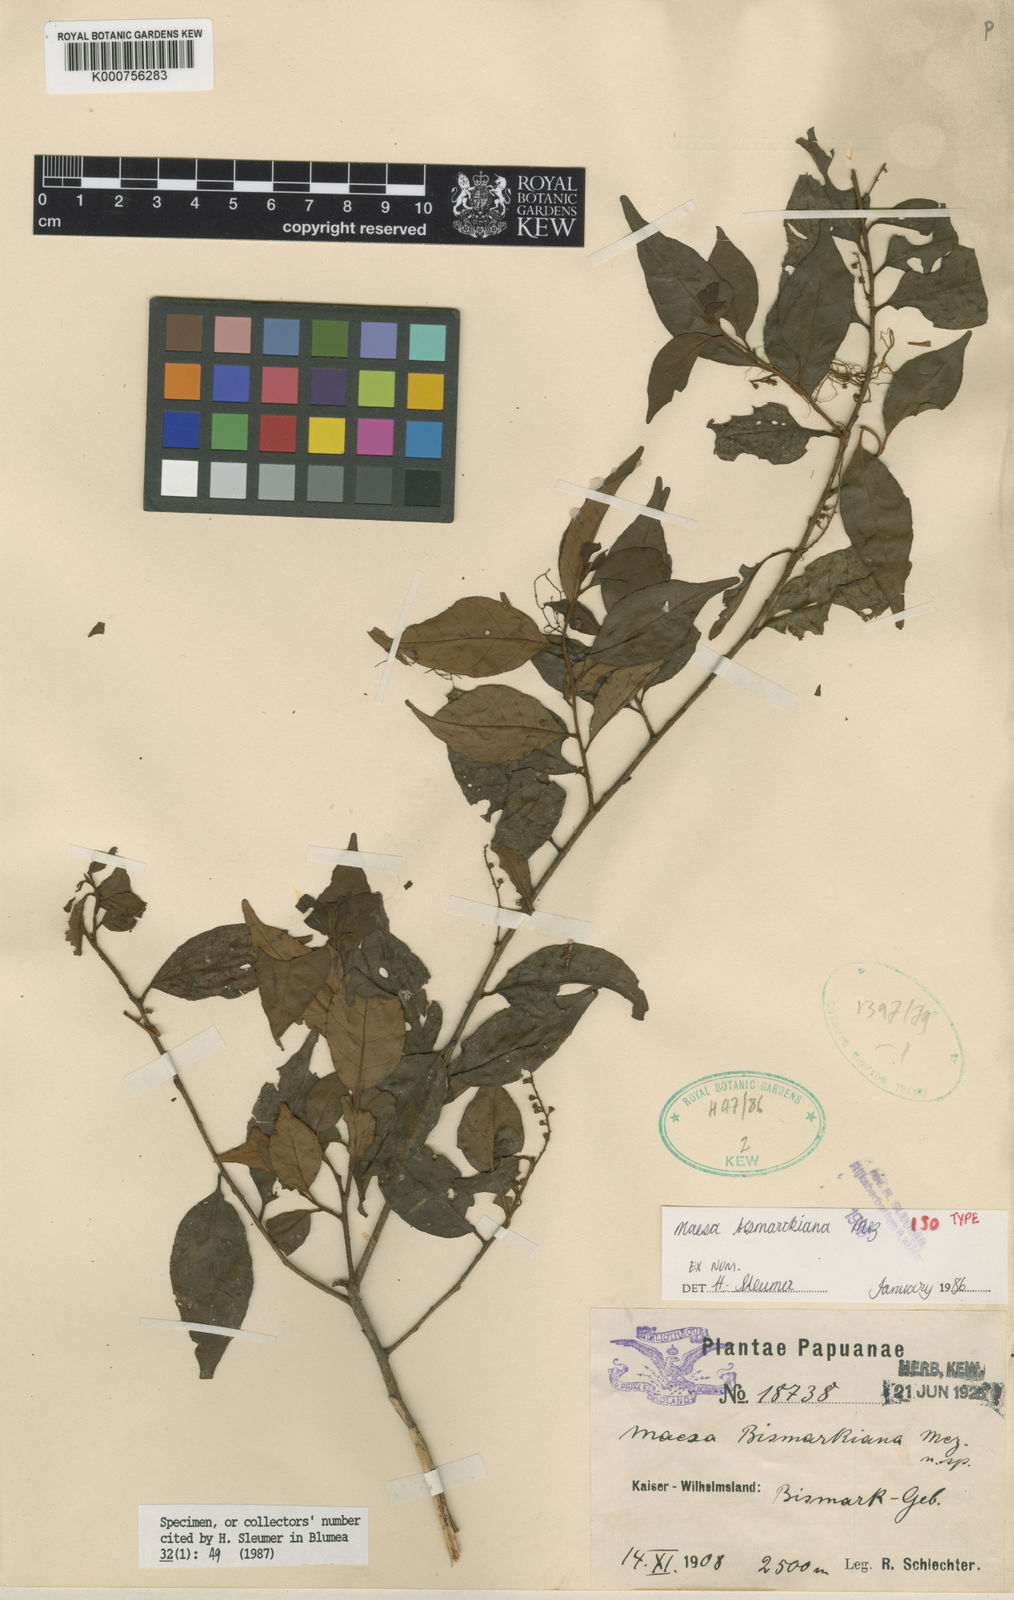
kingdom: Plantae
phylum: Tracheophyta
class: Magnoliopsida
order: Ericales
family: Primulaceae
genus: Maesa
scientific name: Maesa bismarckiana
